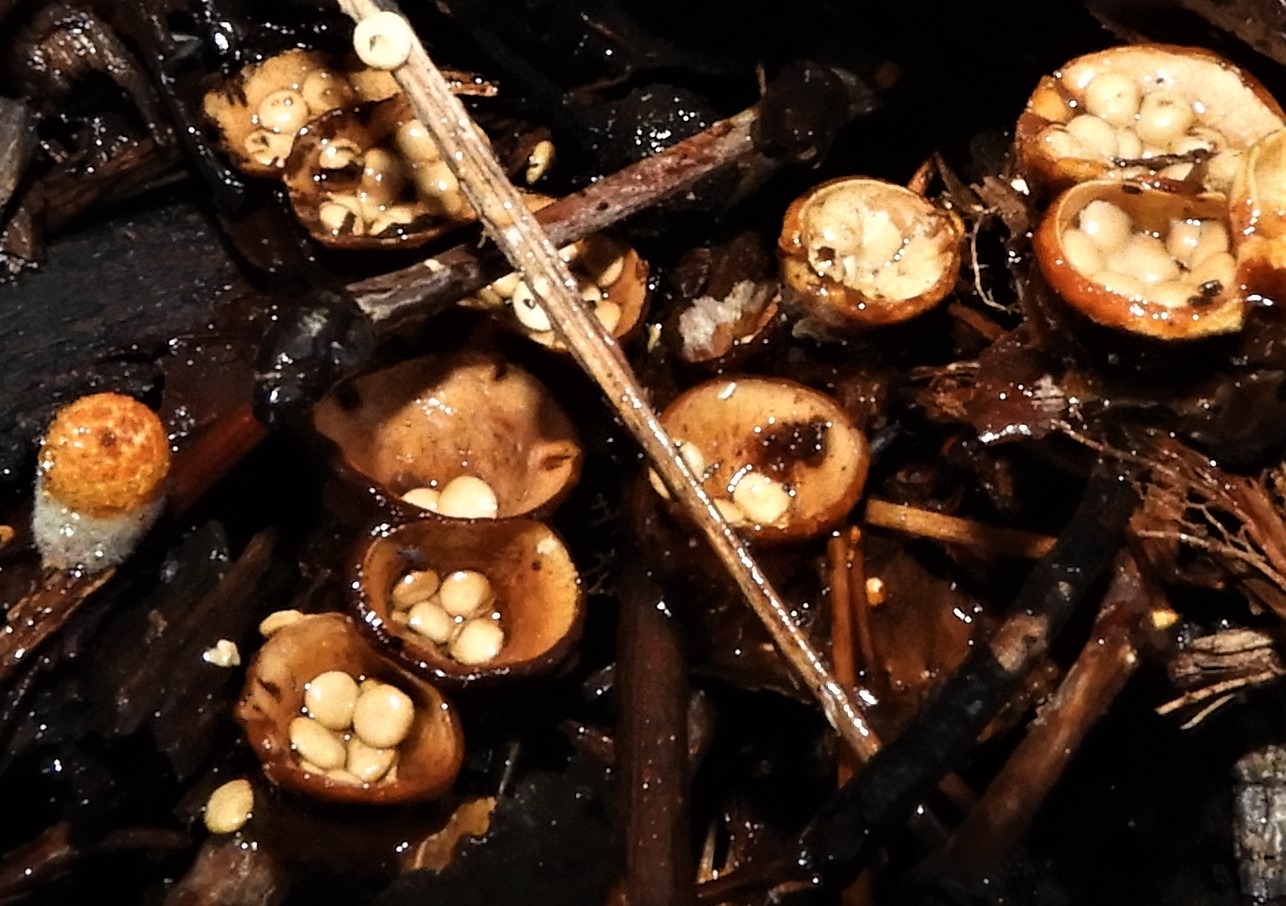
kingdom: Fungi
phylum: Basidiomycota
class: Agaricomycetes
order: Agaricales
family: Nidulariaceae
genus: Crucibulum
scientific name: Crucibulum crucibuliforme
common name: krukkesvamp
